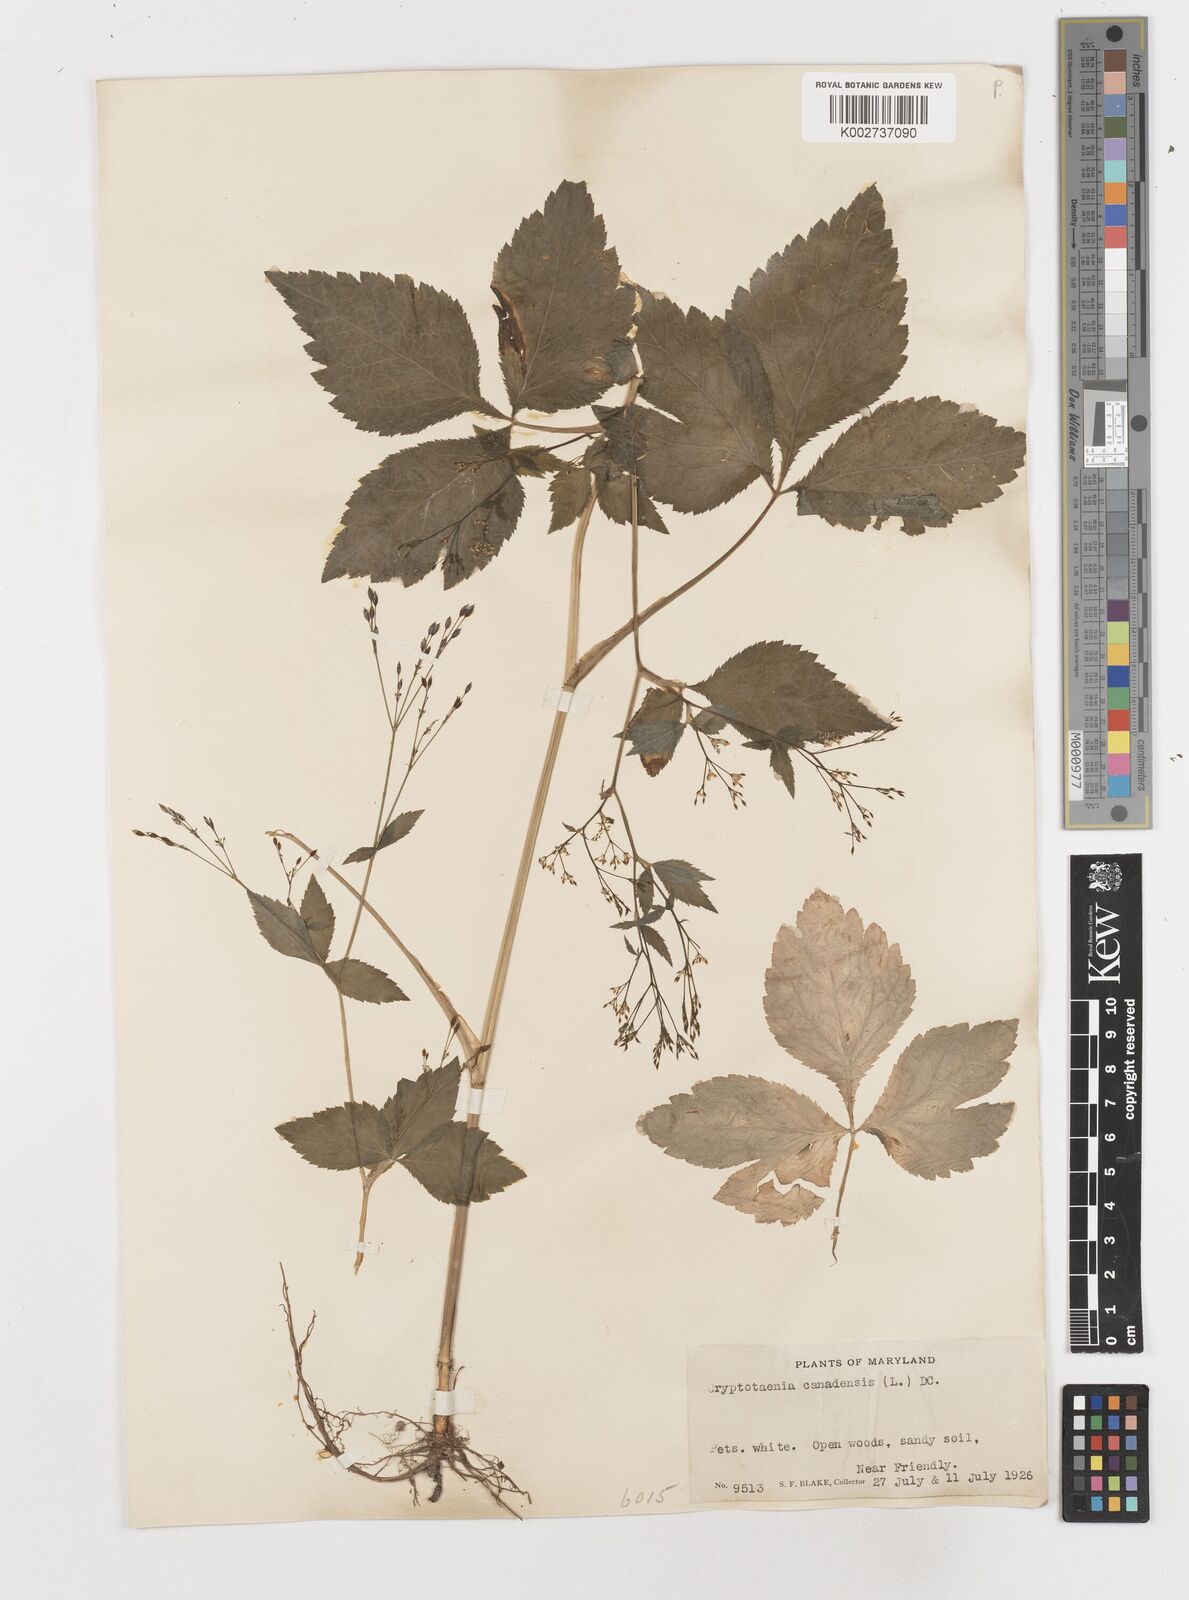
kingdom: Plantae
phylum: Tracheophyta
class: Magnoliopsida
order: Apiales
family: Apiaceae
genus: Cryptotaenia
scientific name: Cryptotaenia canadensis
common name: Honewort
